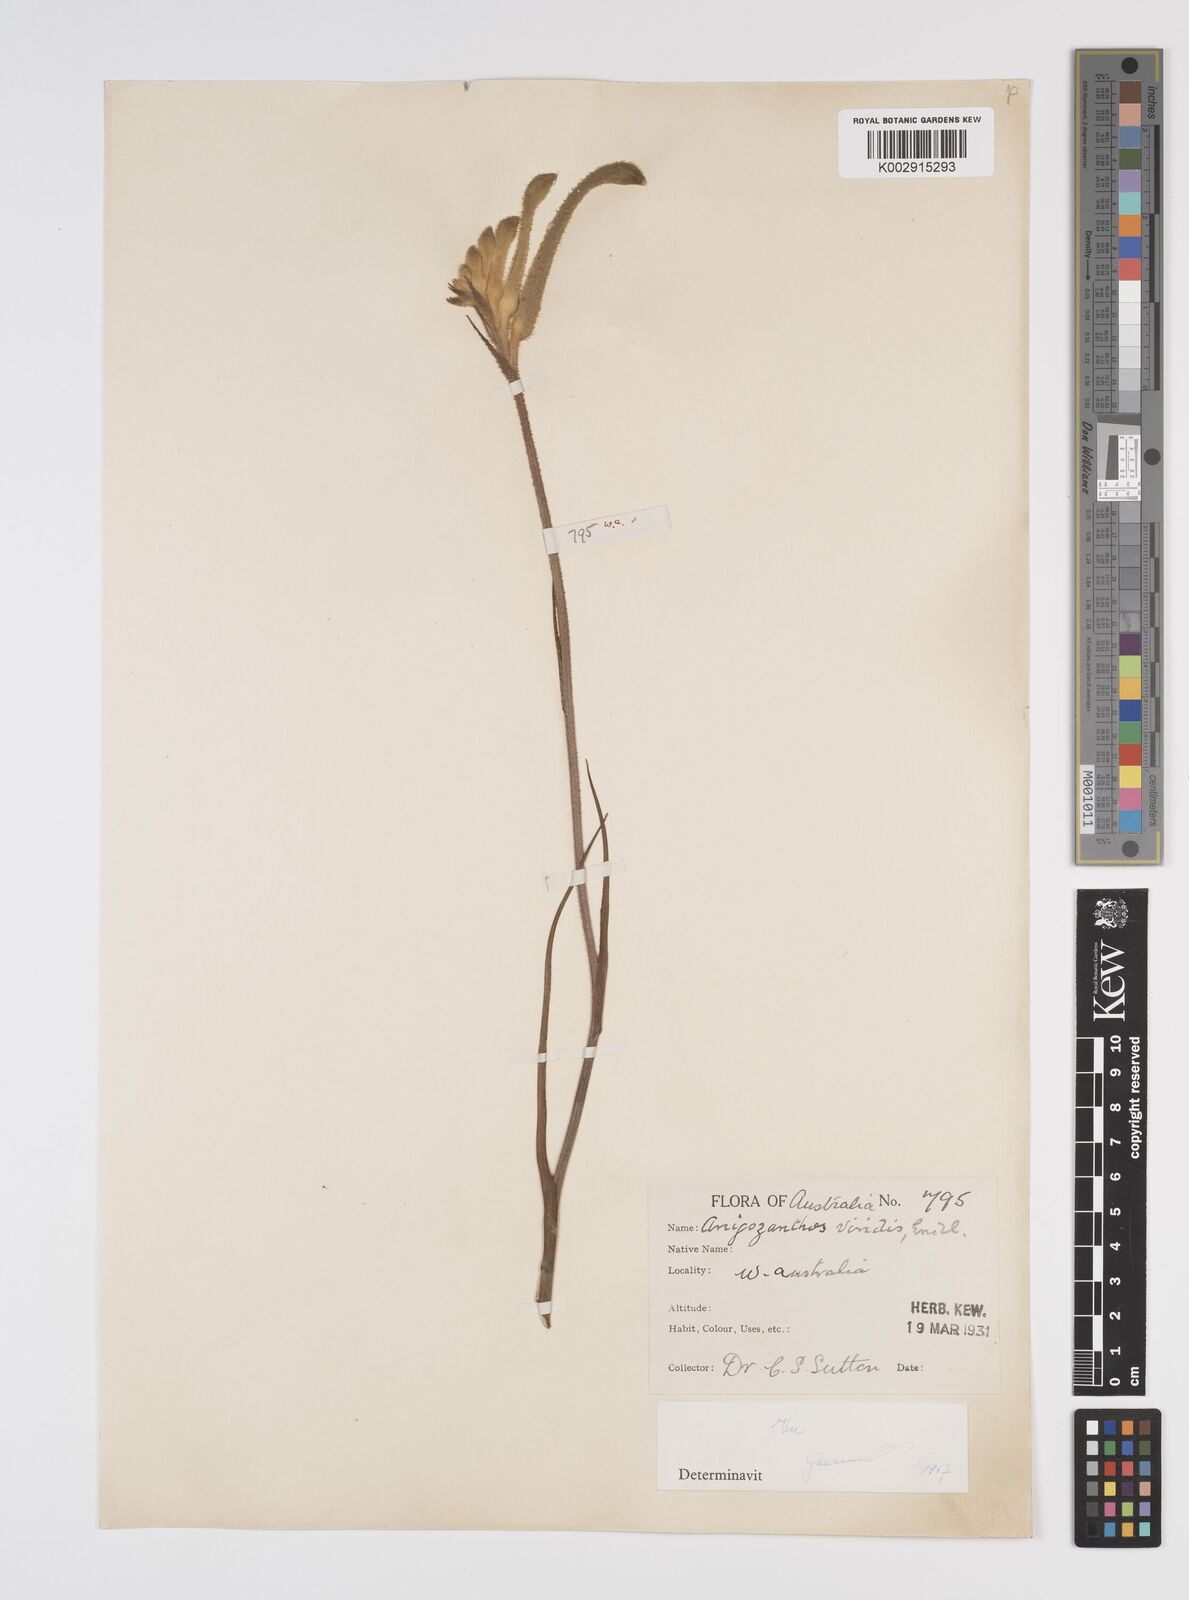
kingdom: Plantae
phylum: Tracheophyta
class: Liliopsida
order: Commelinales
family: Haemodoraceae
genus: Anigozanthos
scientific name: Anigozanthos viridis
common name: Green kangaroo-paw
